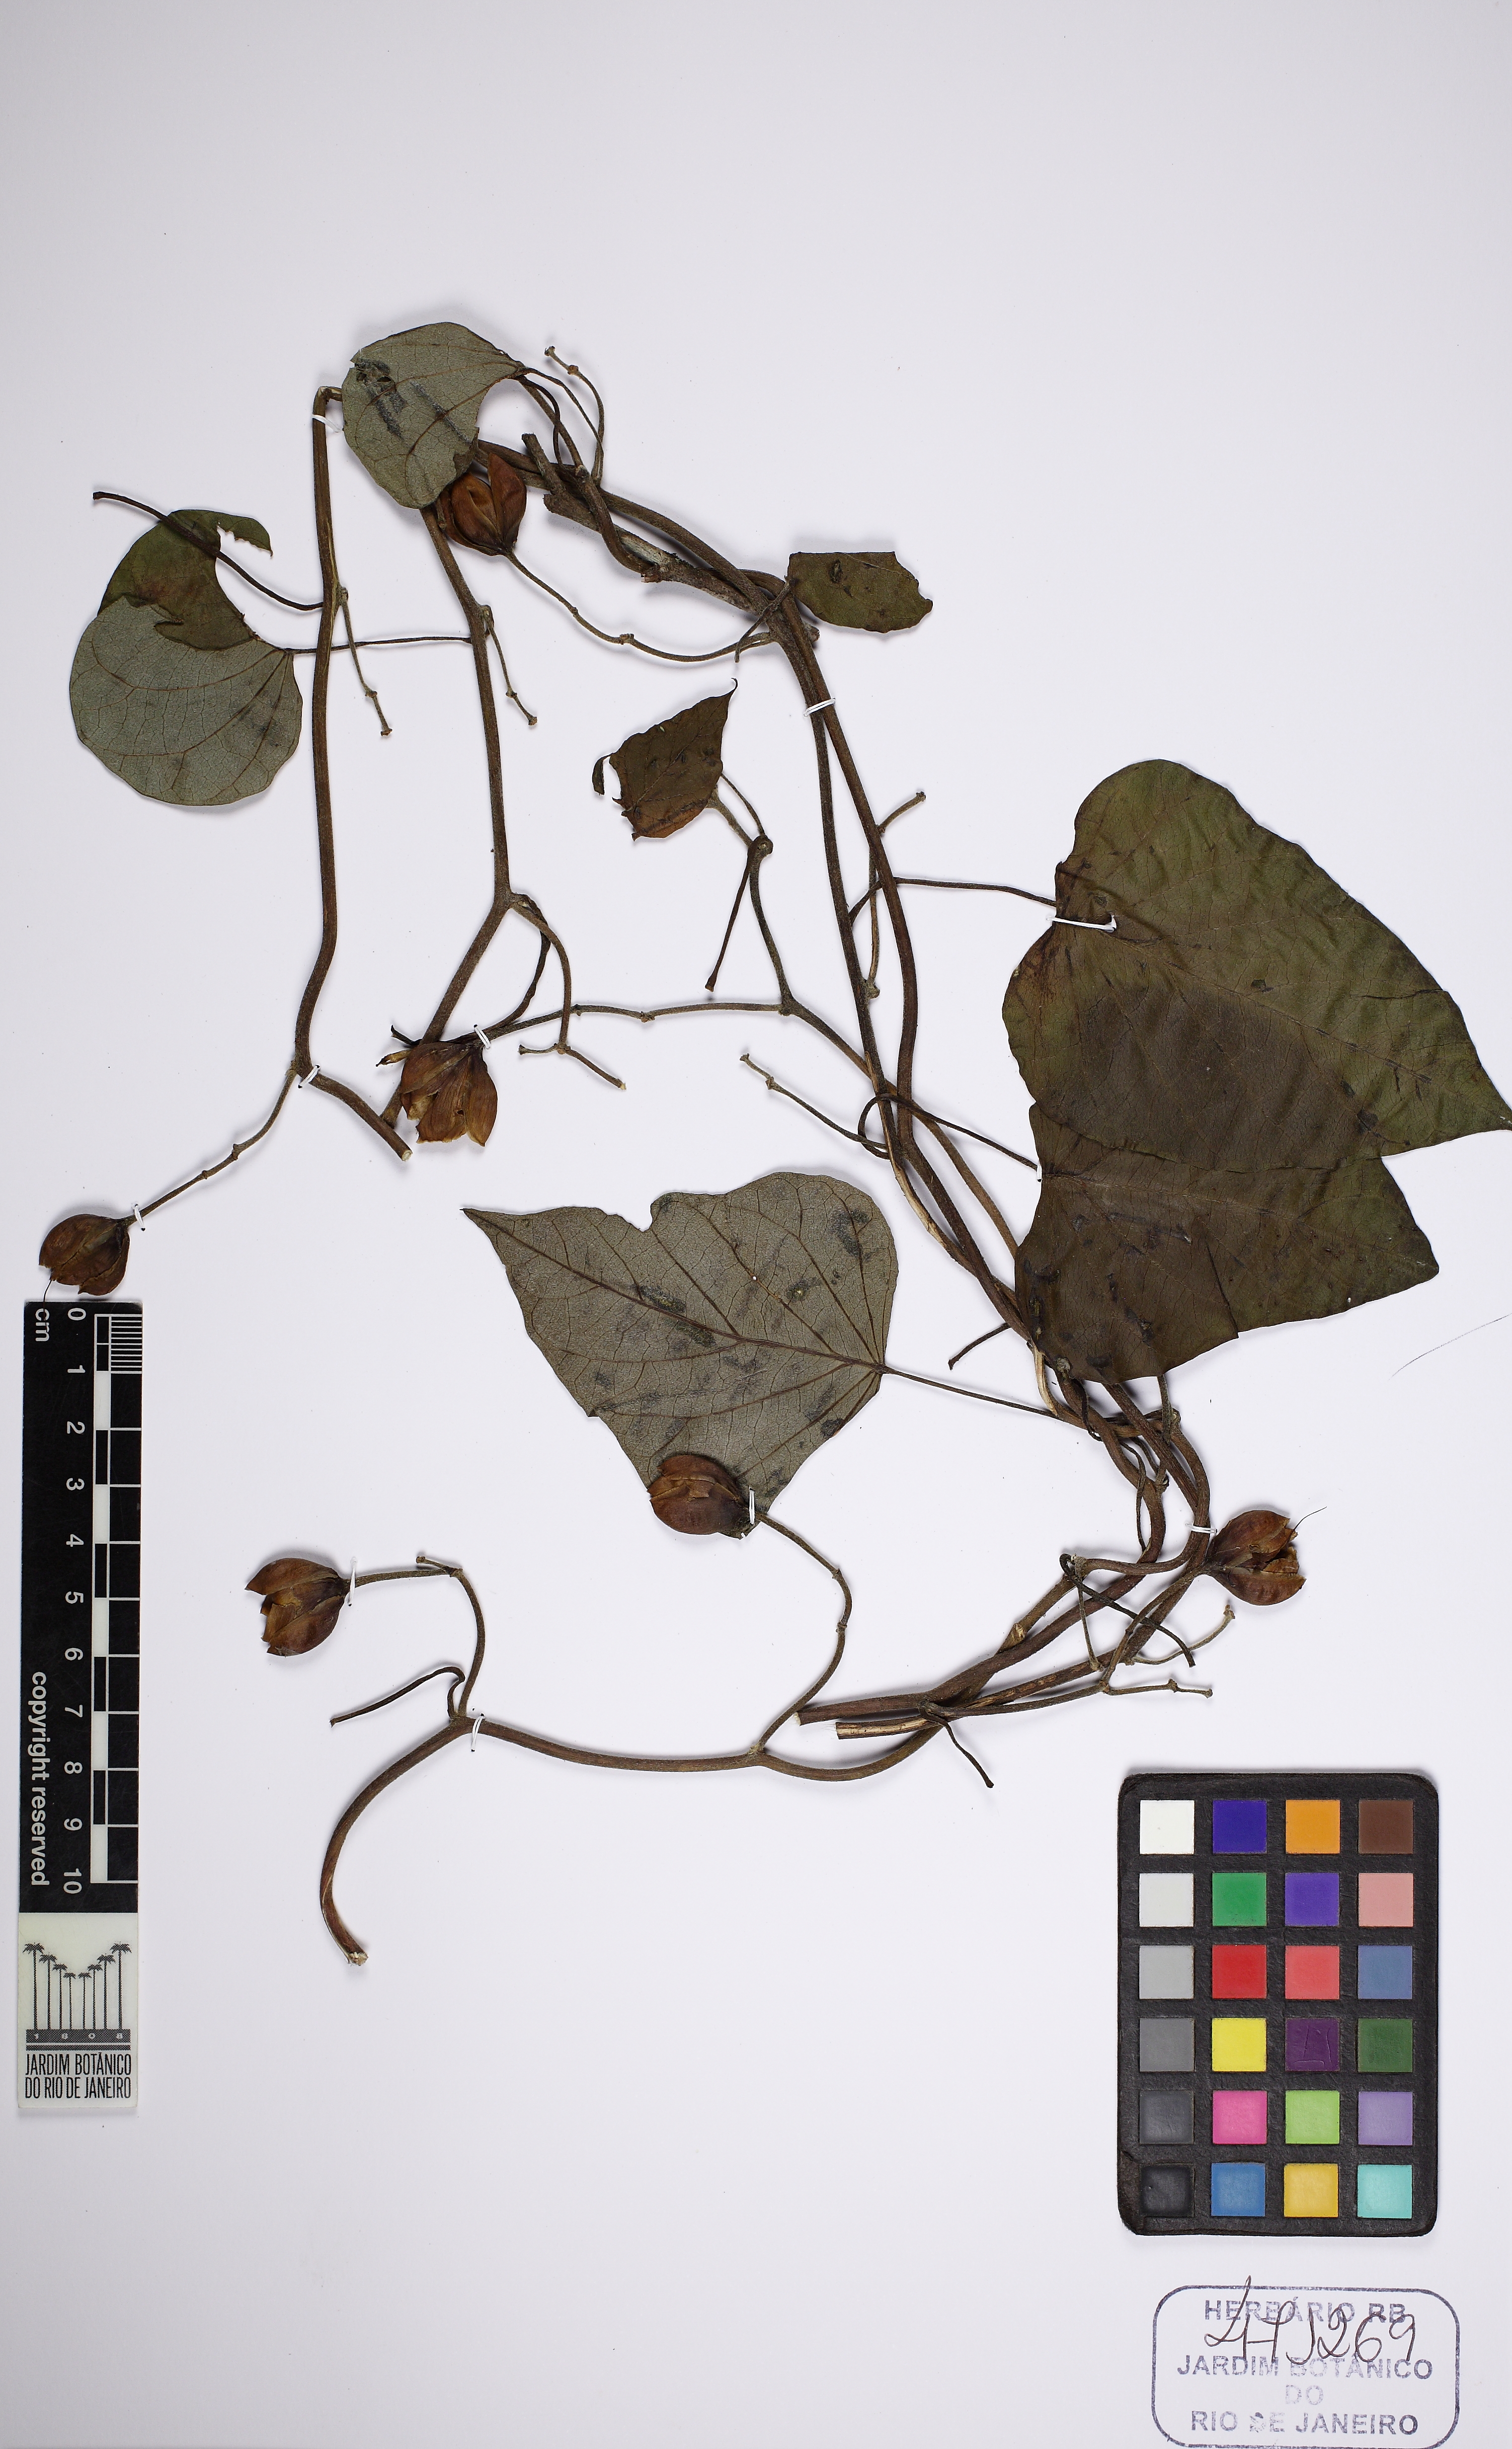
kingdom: Plantae
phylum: Tracheophyta
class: Magnoliopsida
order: Solanales
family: Convolvulaceae
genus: Ipomoea
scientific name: Ipomoea
